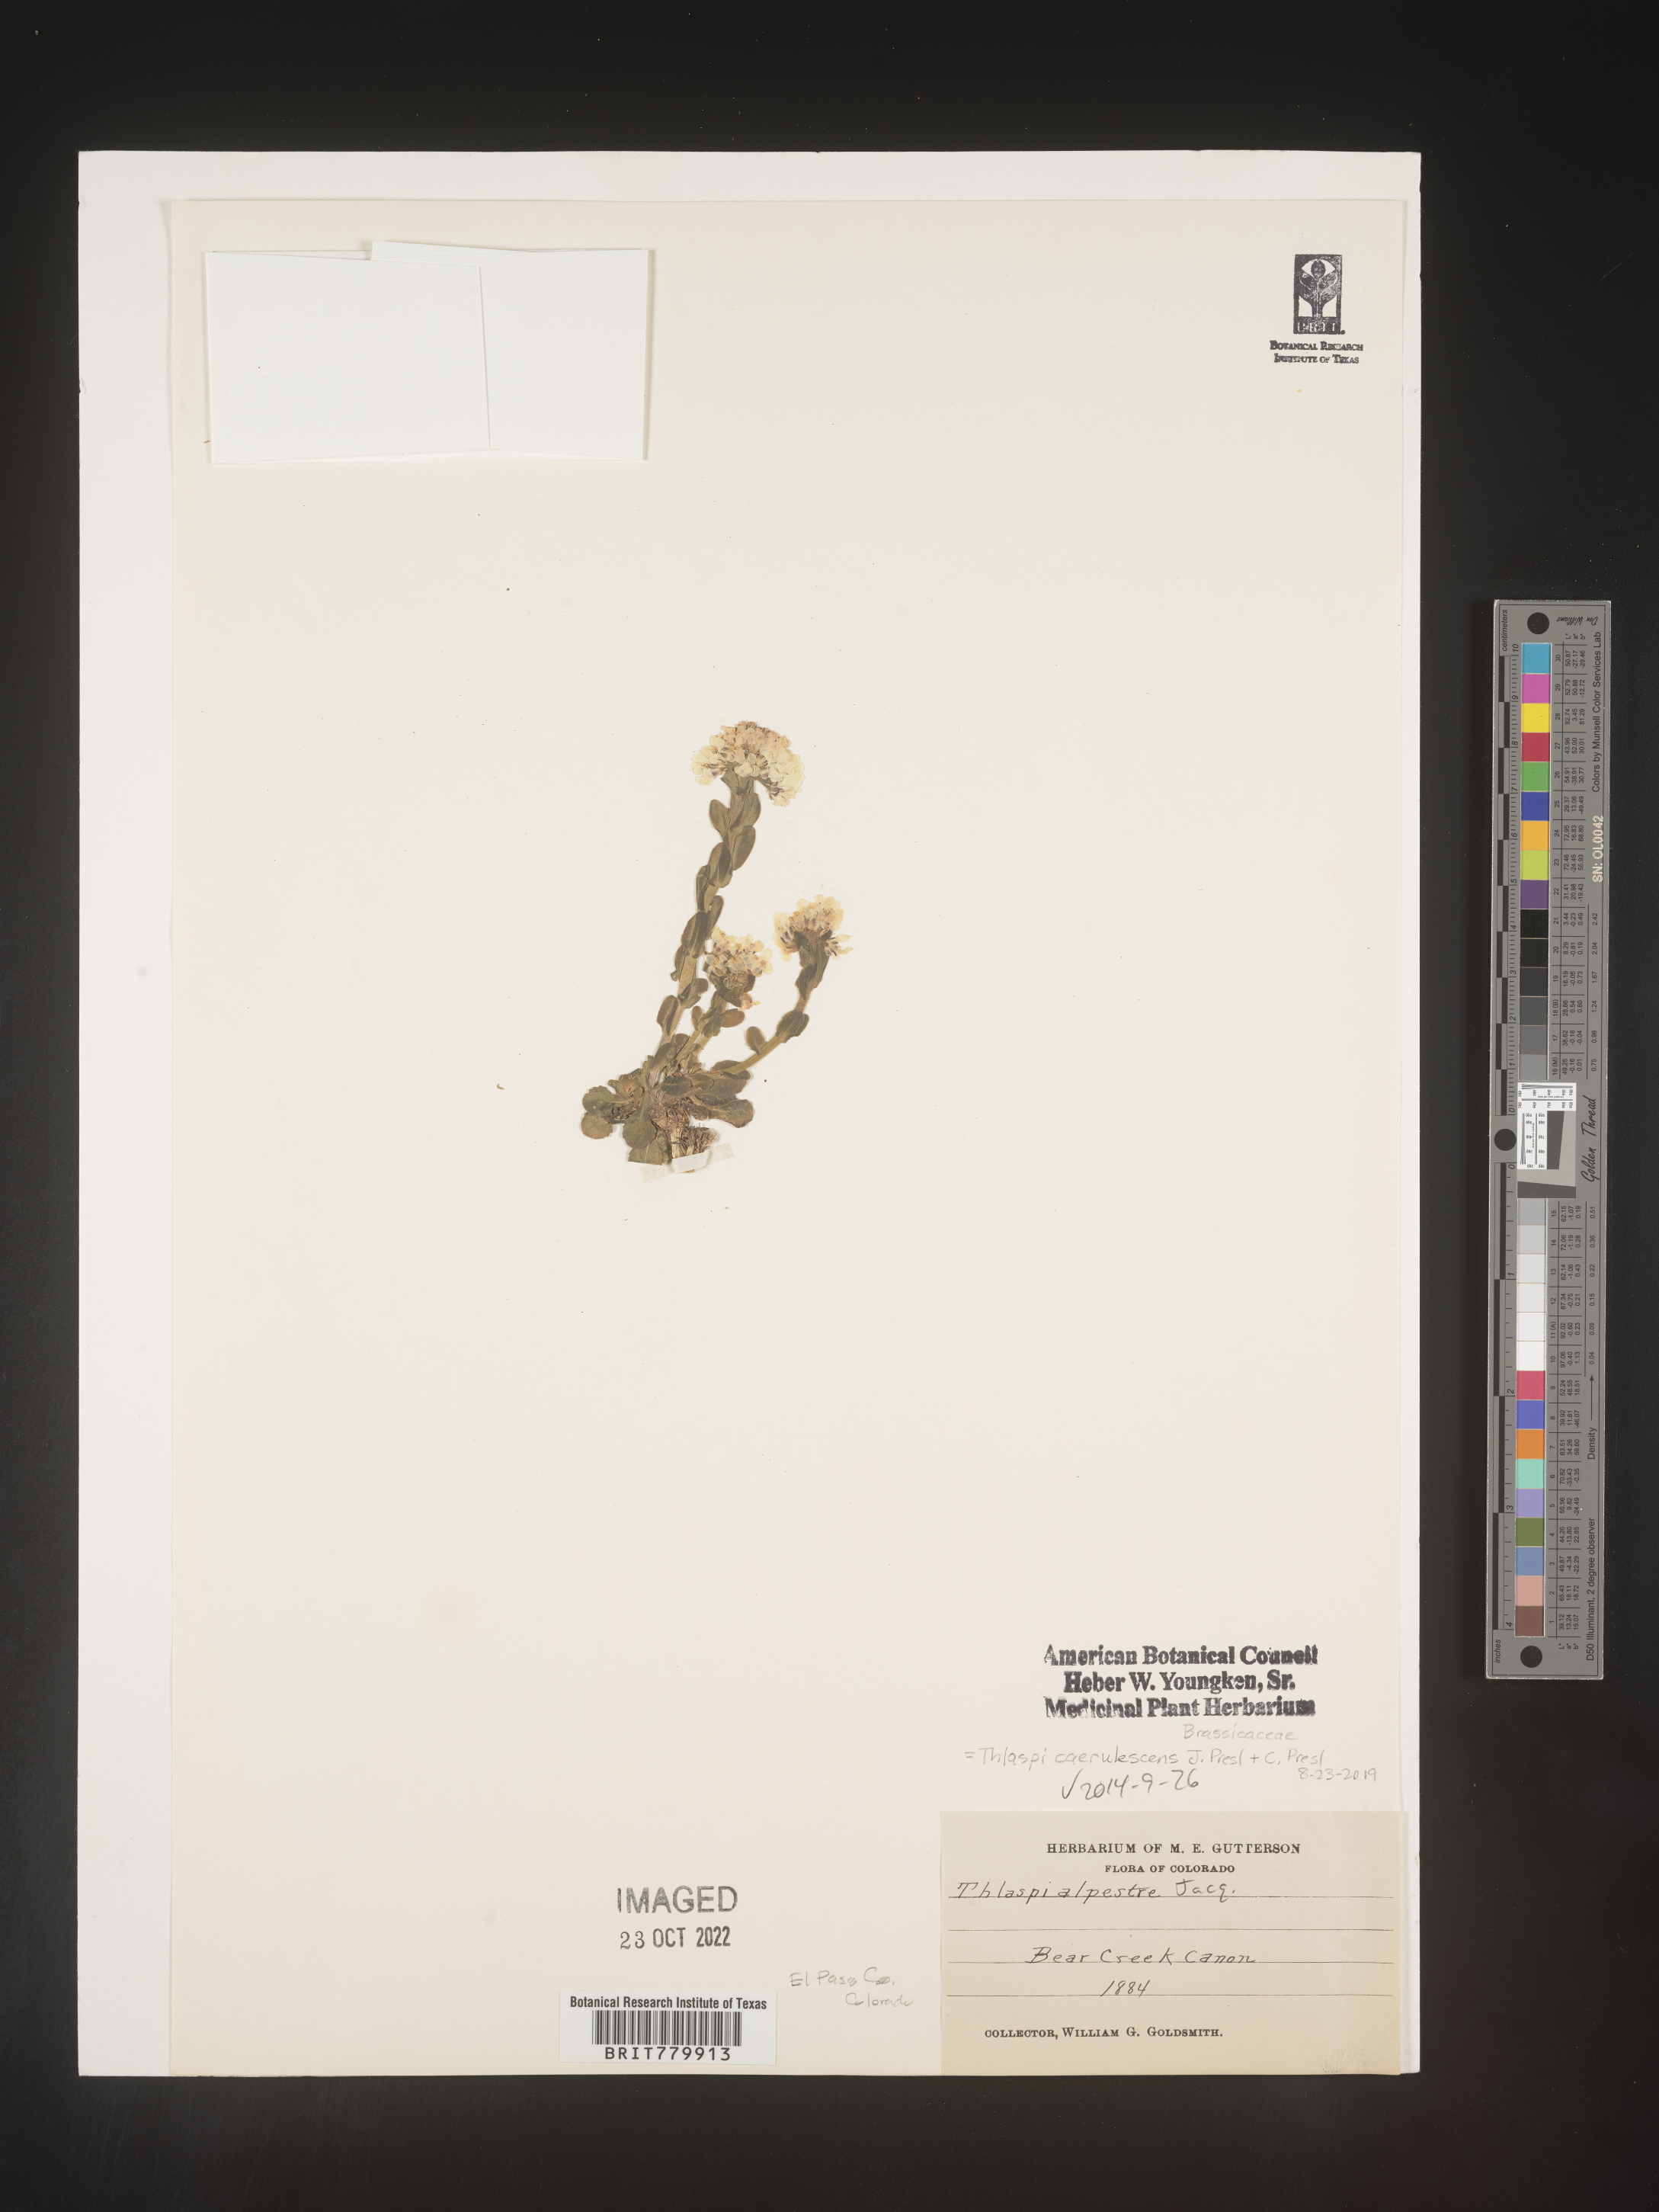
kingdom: Plantae
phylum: Tracheophyta
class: Magnoliopsida
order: Brassicales
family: Brassicaceae
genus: Thlaspi
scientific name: Thlaspi
